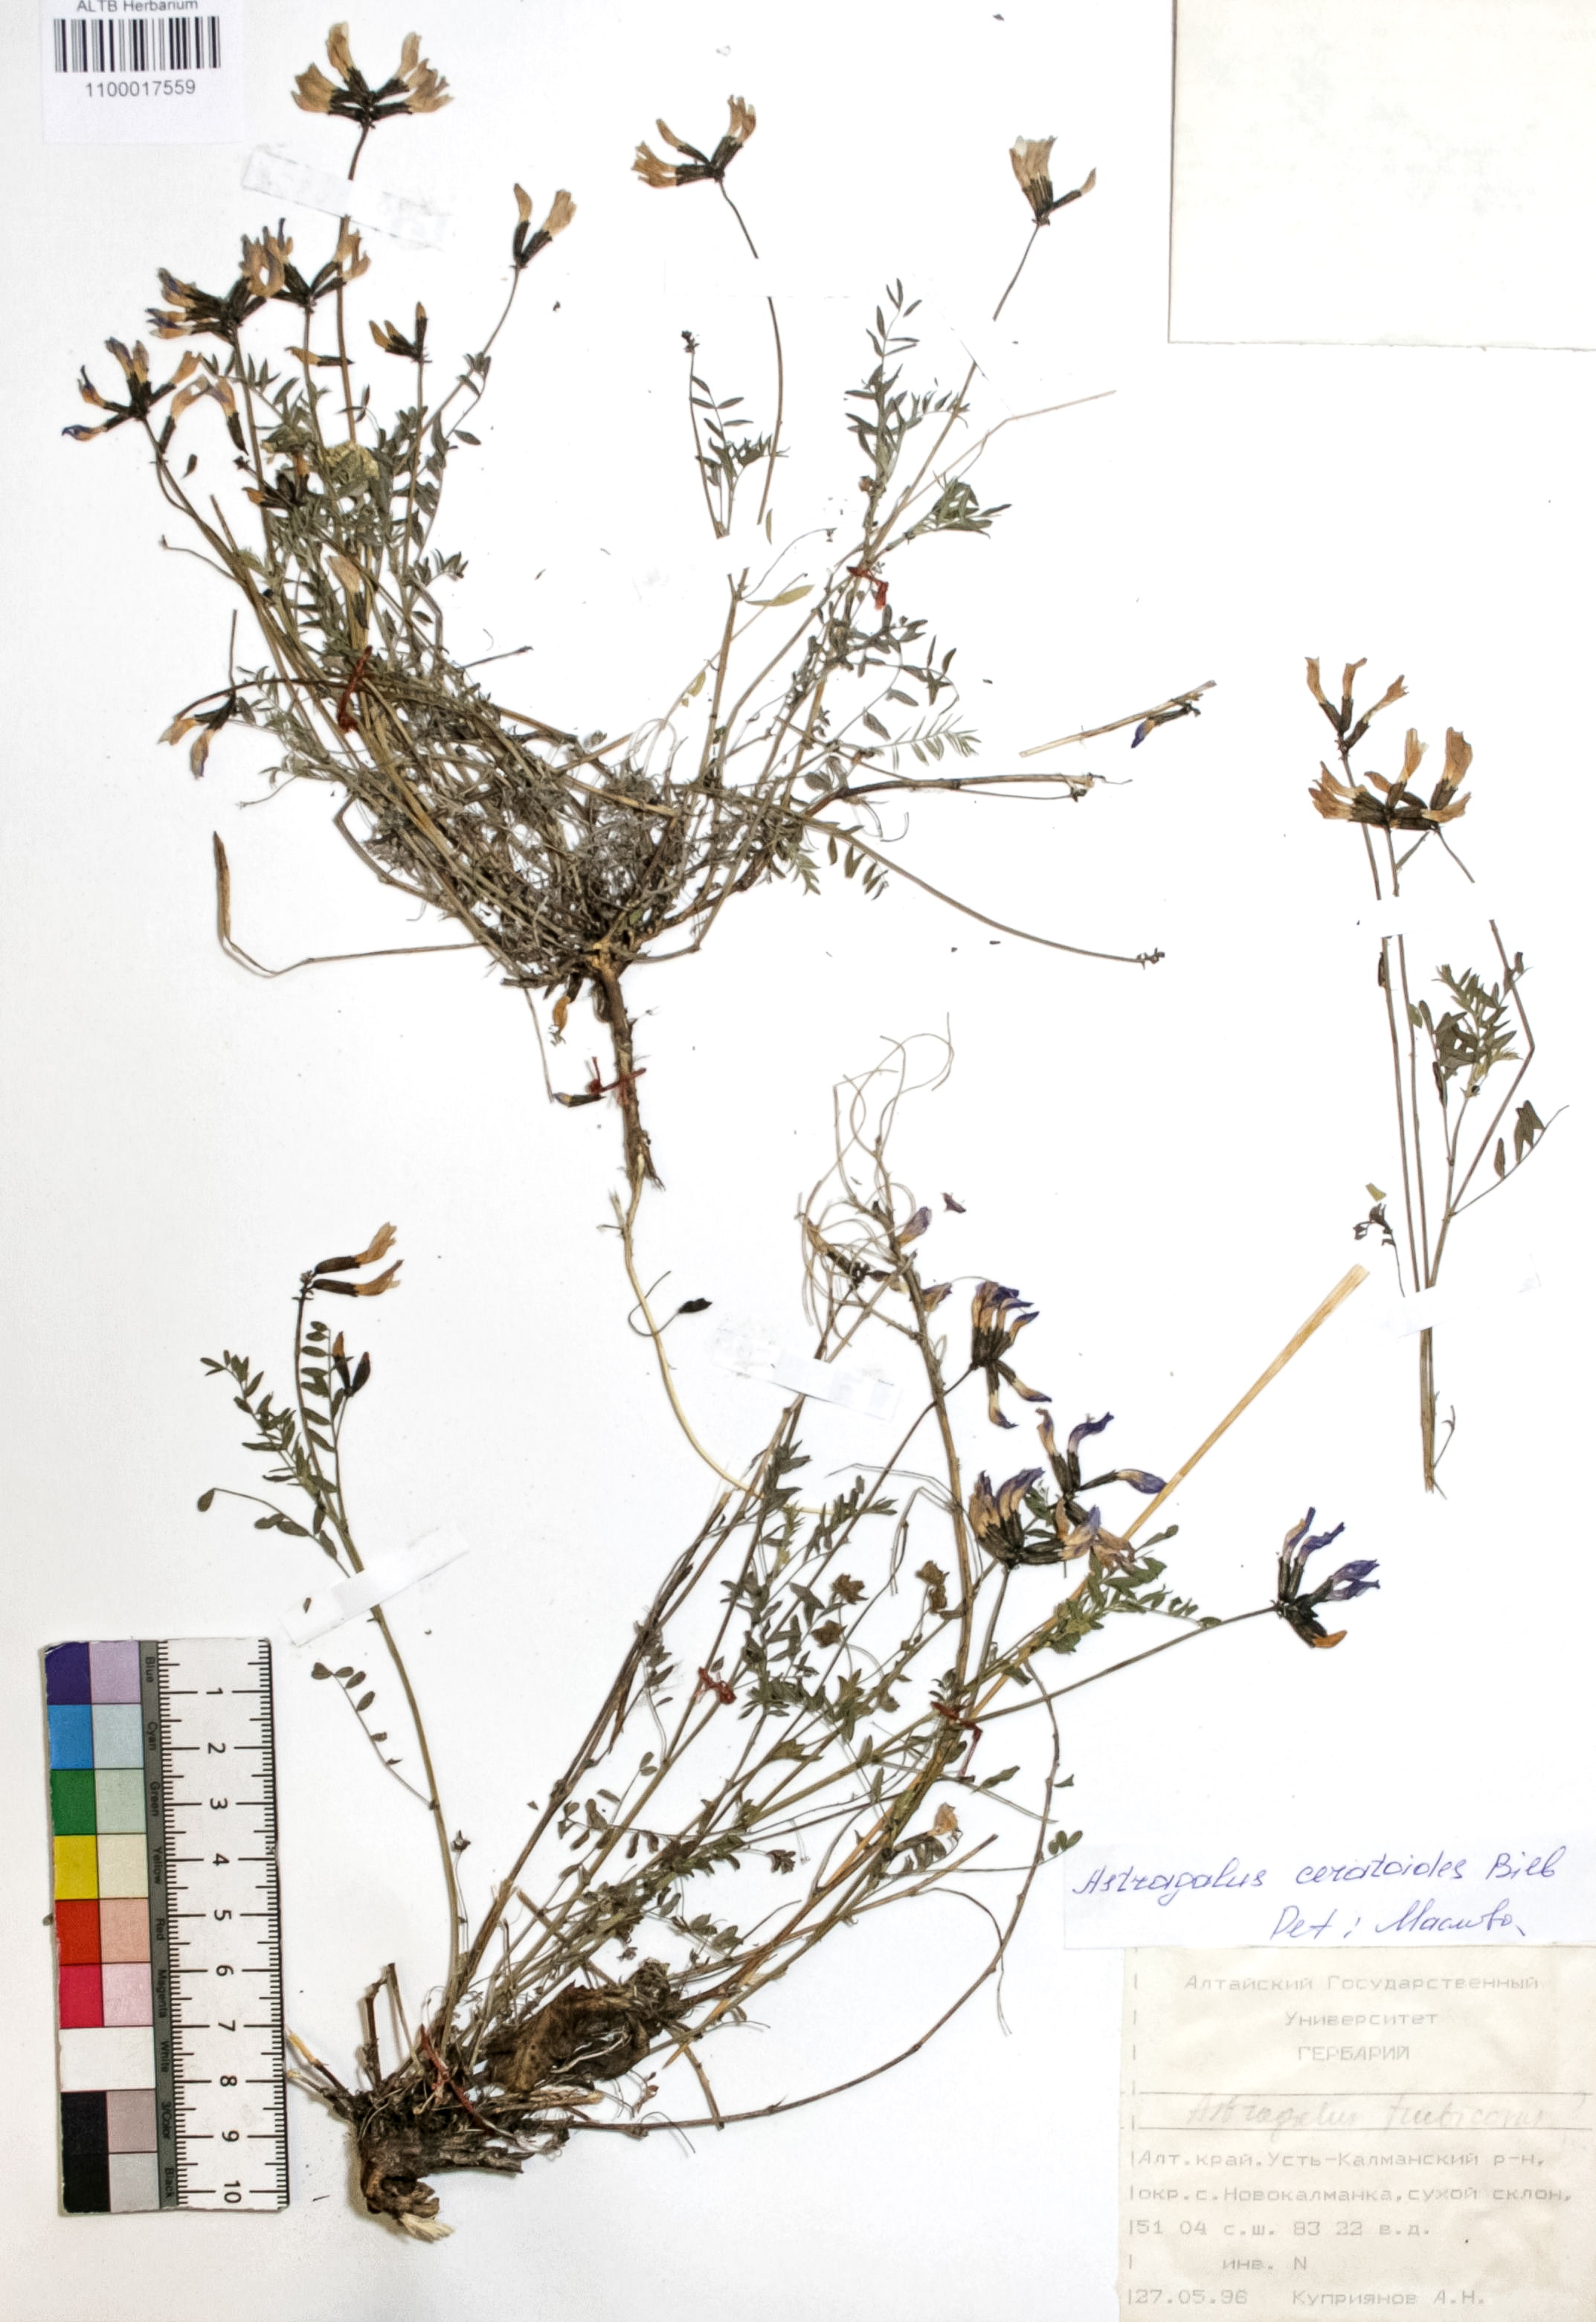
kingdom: Plantae
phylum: Tracheophyta
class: Magnoliopsida
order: Fabales
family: Fabaceae
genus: Astragalus
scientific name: Astragalus ceratoides
